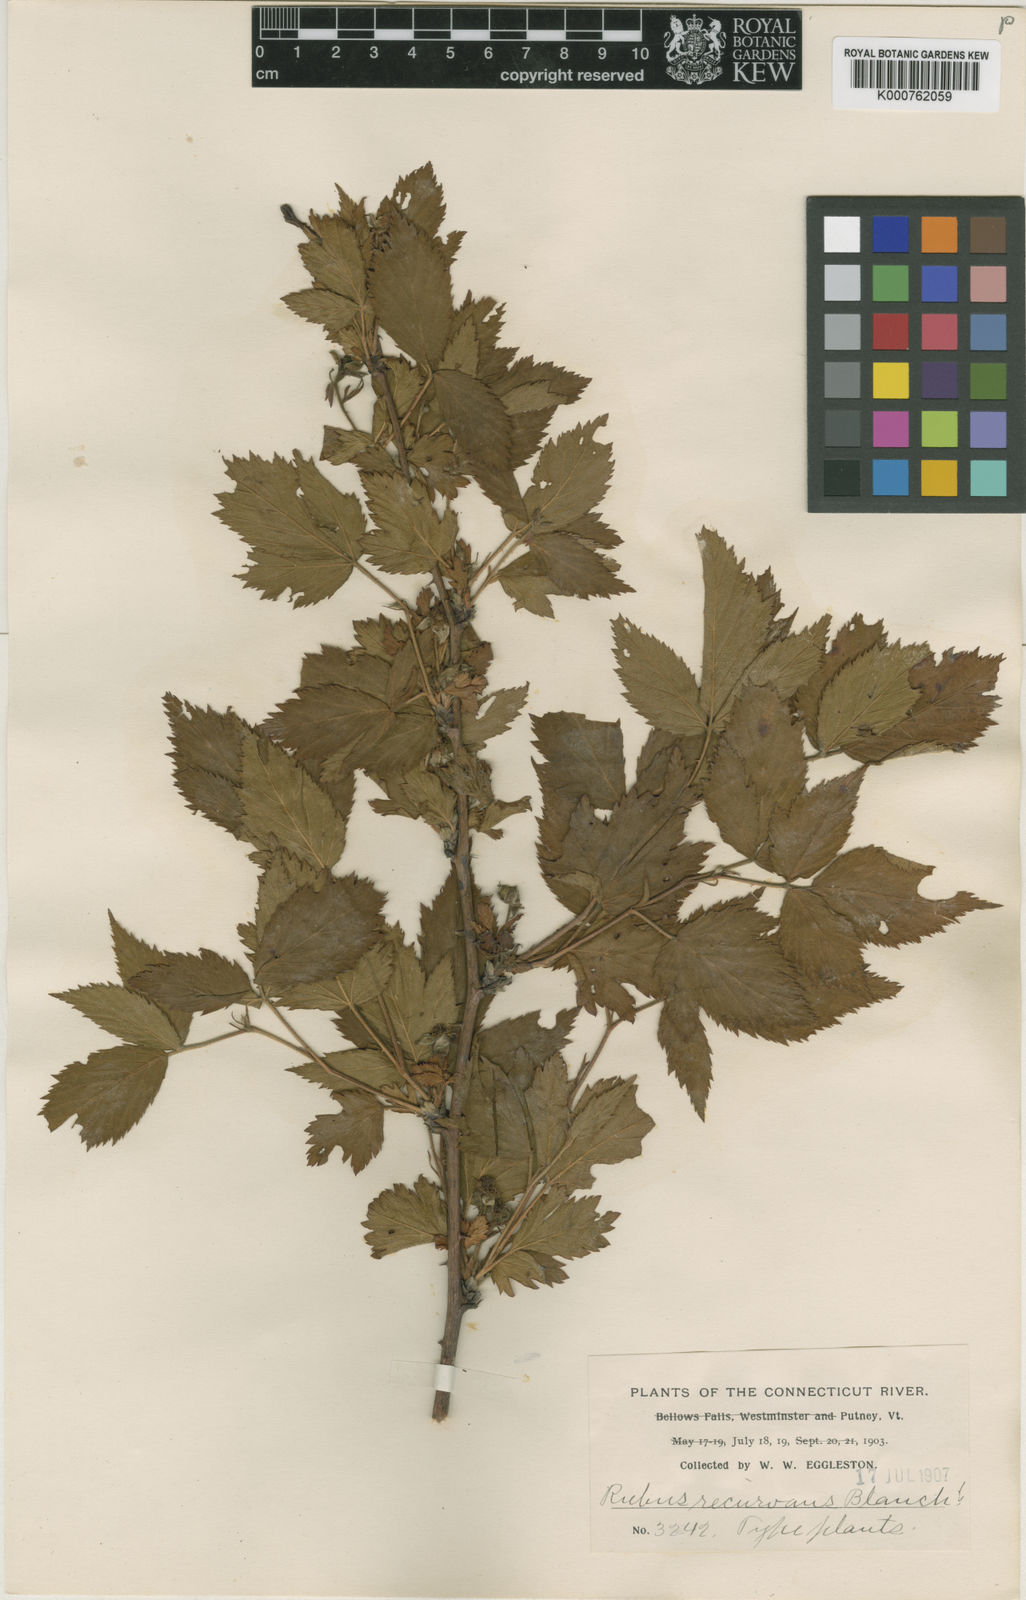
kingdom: Plantae
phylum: Tracheophyta
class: Magnoliopsida
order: Rosales
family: Rosaceae
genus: Rubus
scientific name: Rubus recurvans
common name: Recurved blackberry
